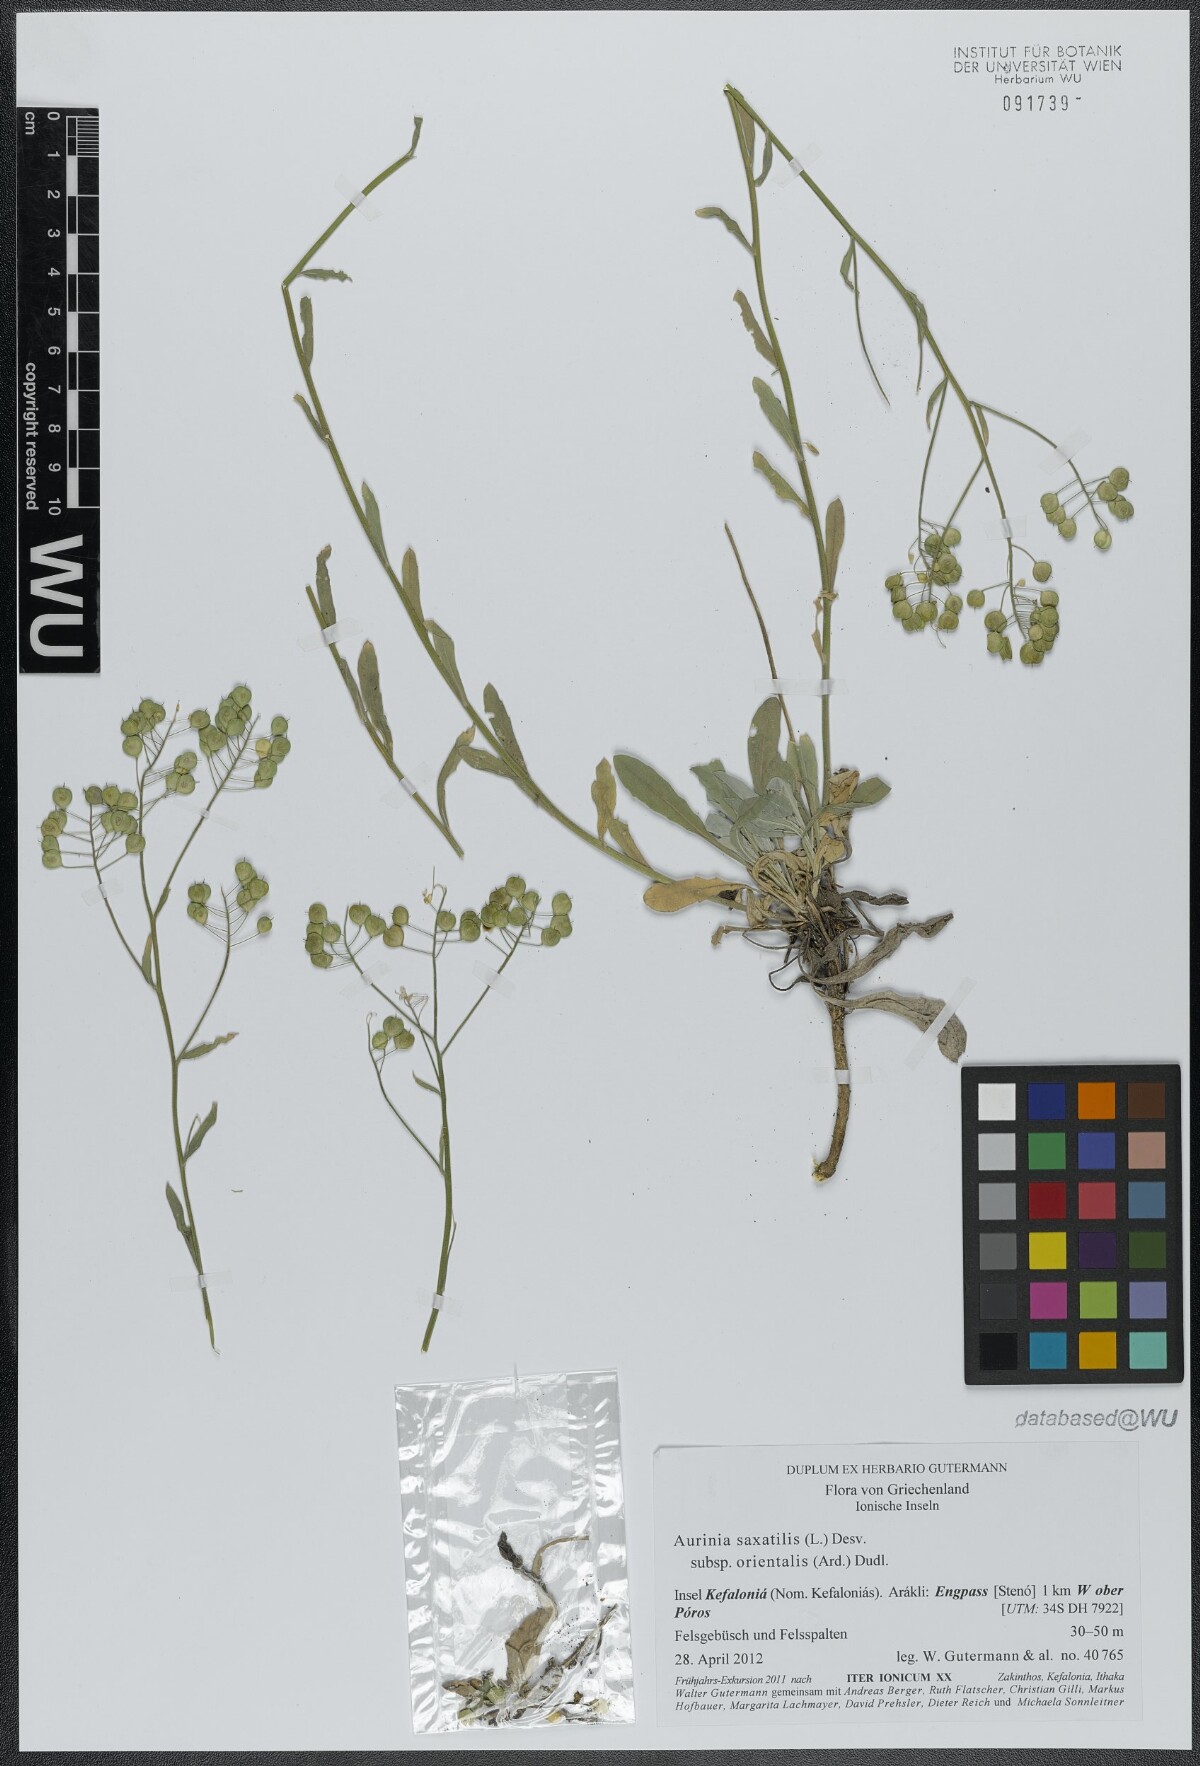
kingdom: Plantae
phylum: Tracheophyta
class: Magnoliopsida
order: Brassicales
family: Brassicaceae
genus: Aurinia
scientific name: Aurinia saxatilis
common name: Golden-tuft alyssum
